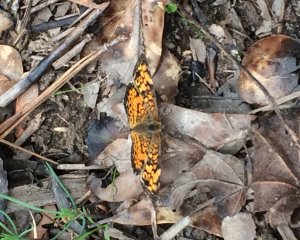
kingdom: Animalia
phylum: Arthropoda
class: Insecta
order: Lepidoptera
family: Nymphalidae
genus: Phyciodes
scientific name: Phyciodes tharos
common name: Pearl Crescent
